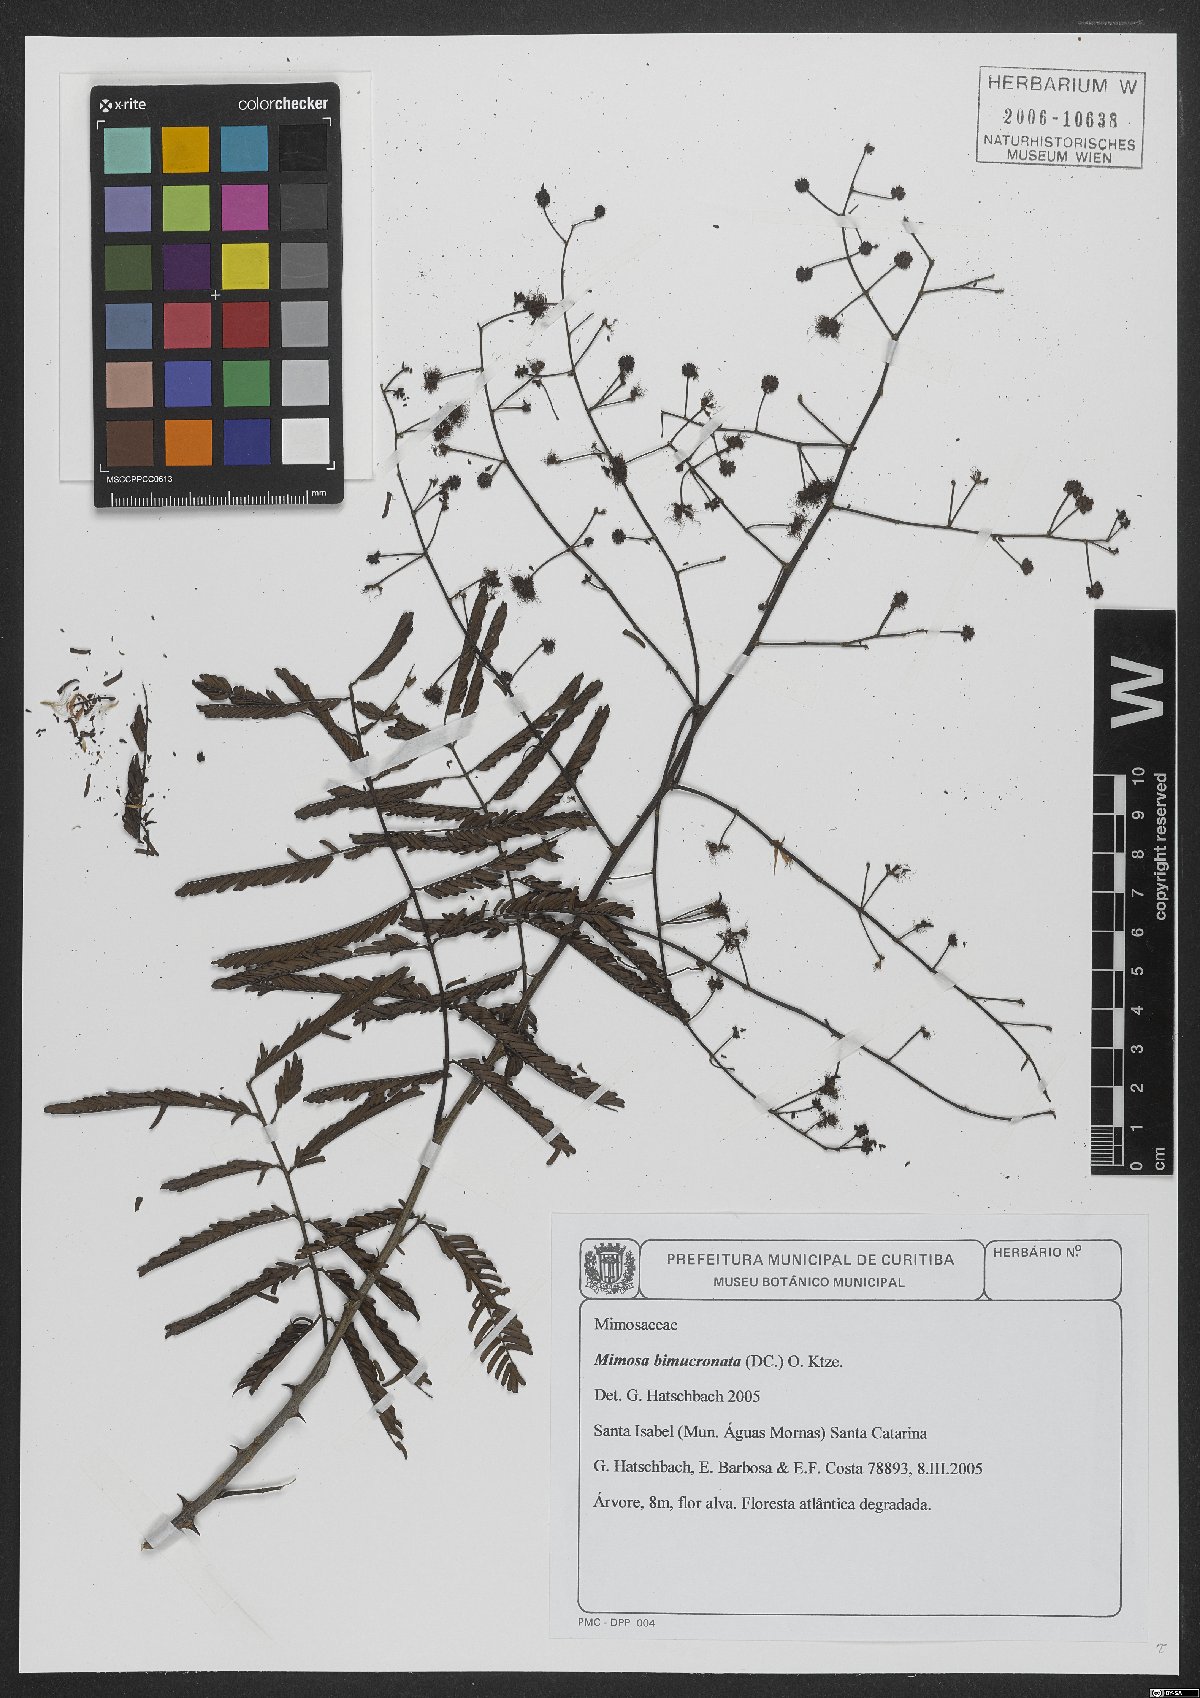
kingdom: Plantae
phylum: Tracheophyta
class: Magnoliopsida
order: Fabales
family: Fabaceae
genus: Mimosa
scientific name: Mimosa bimucronata
